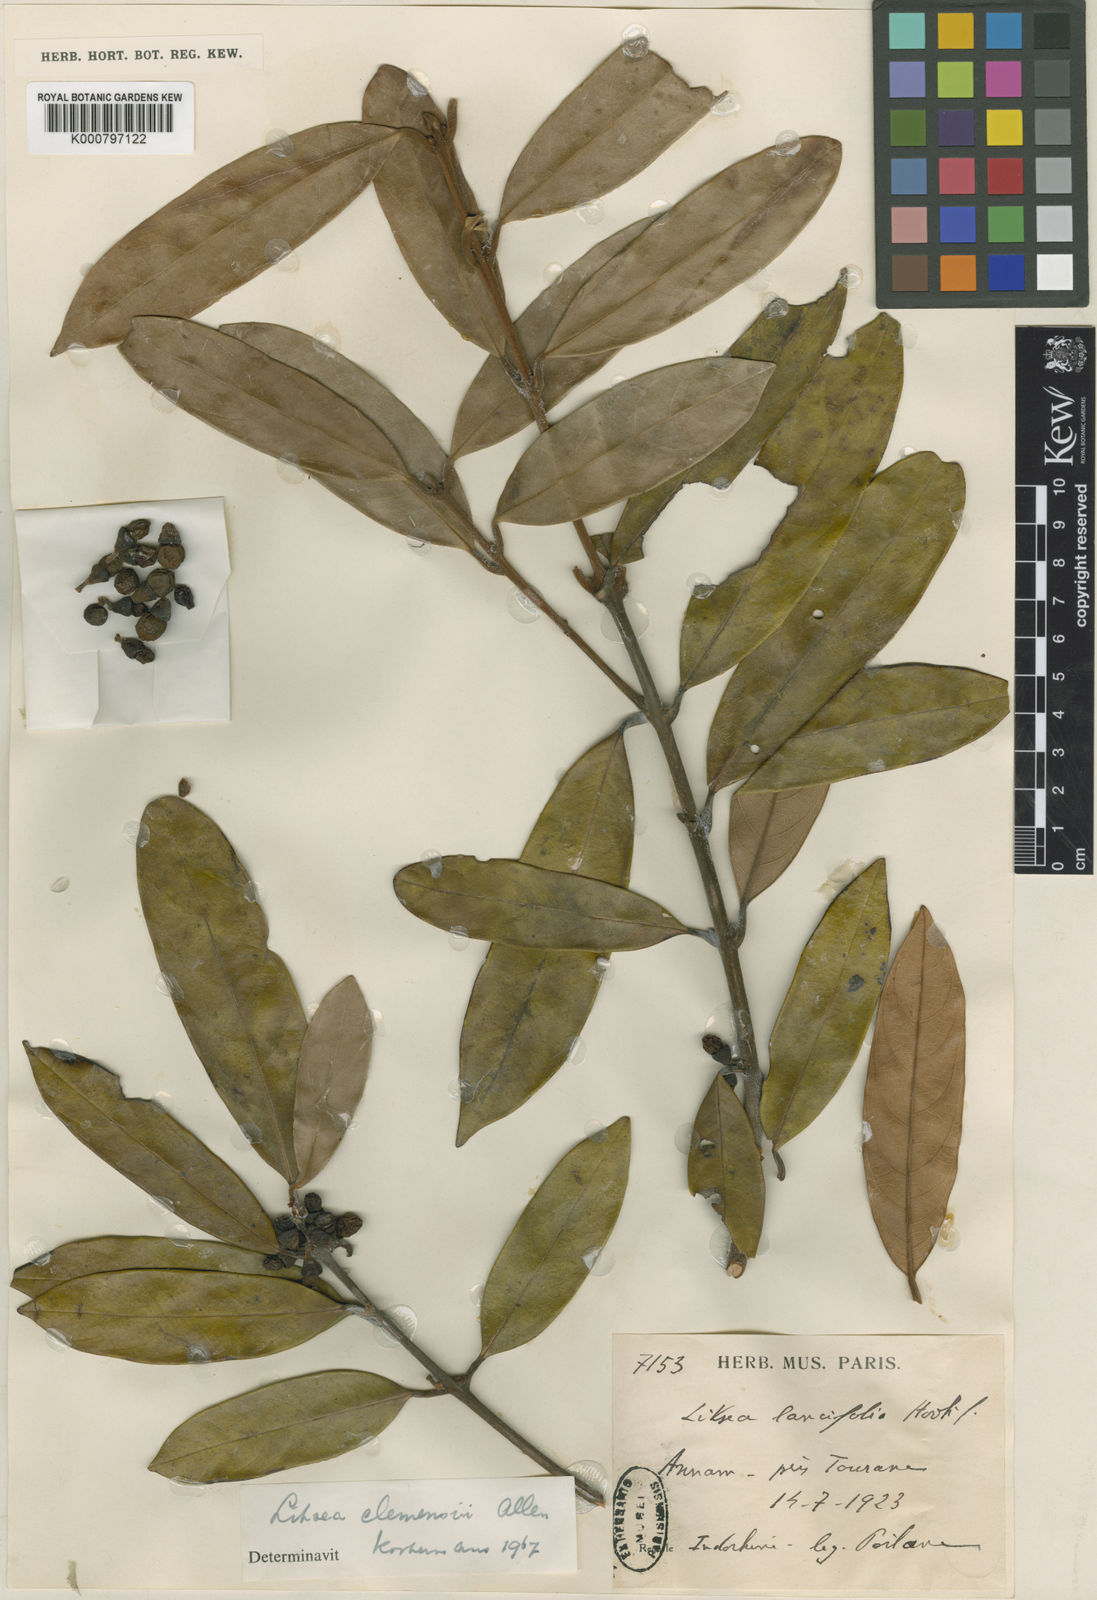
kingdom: Plantae
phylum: Tracheophyta
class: Magnoliopsida
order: Laurales
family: Lauraceae
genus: Litsea
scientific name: Litsea clemensii
